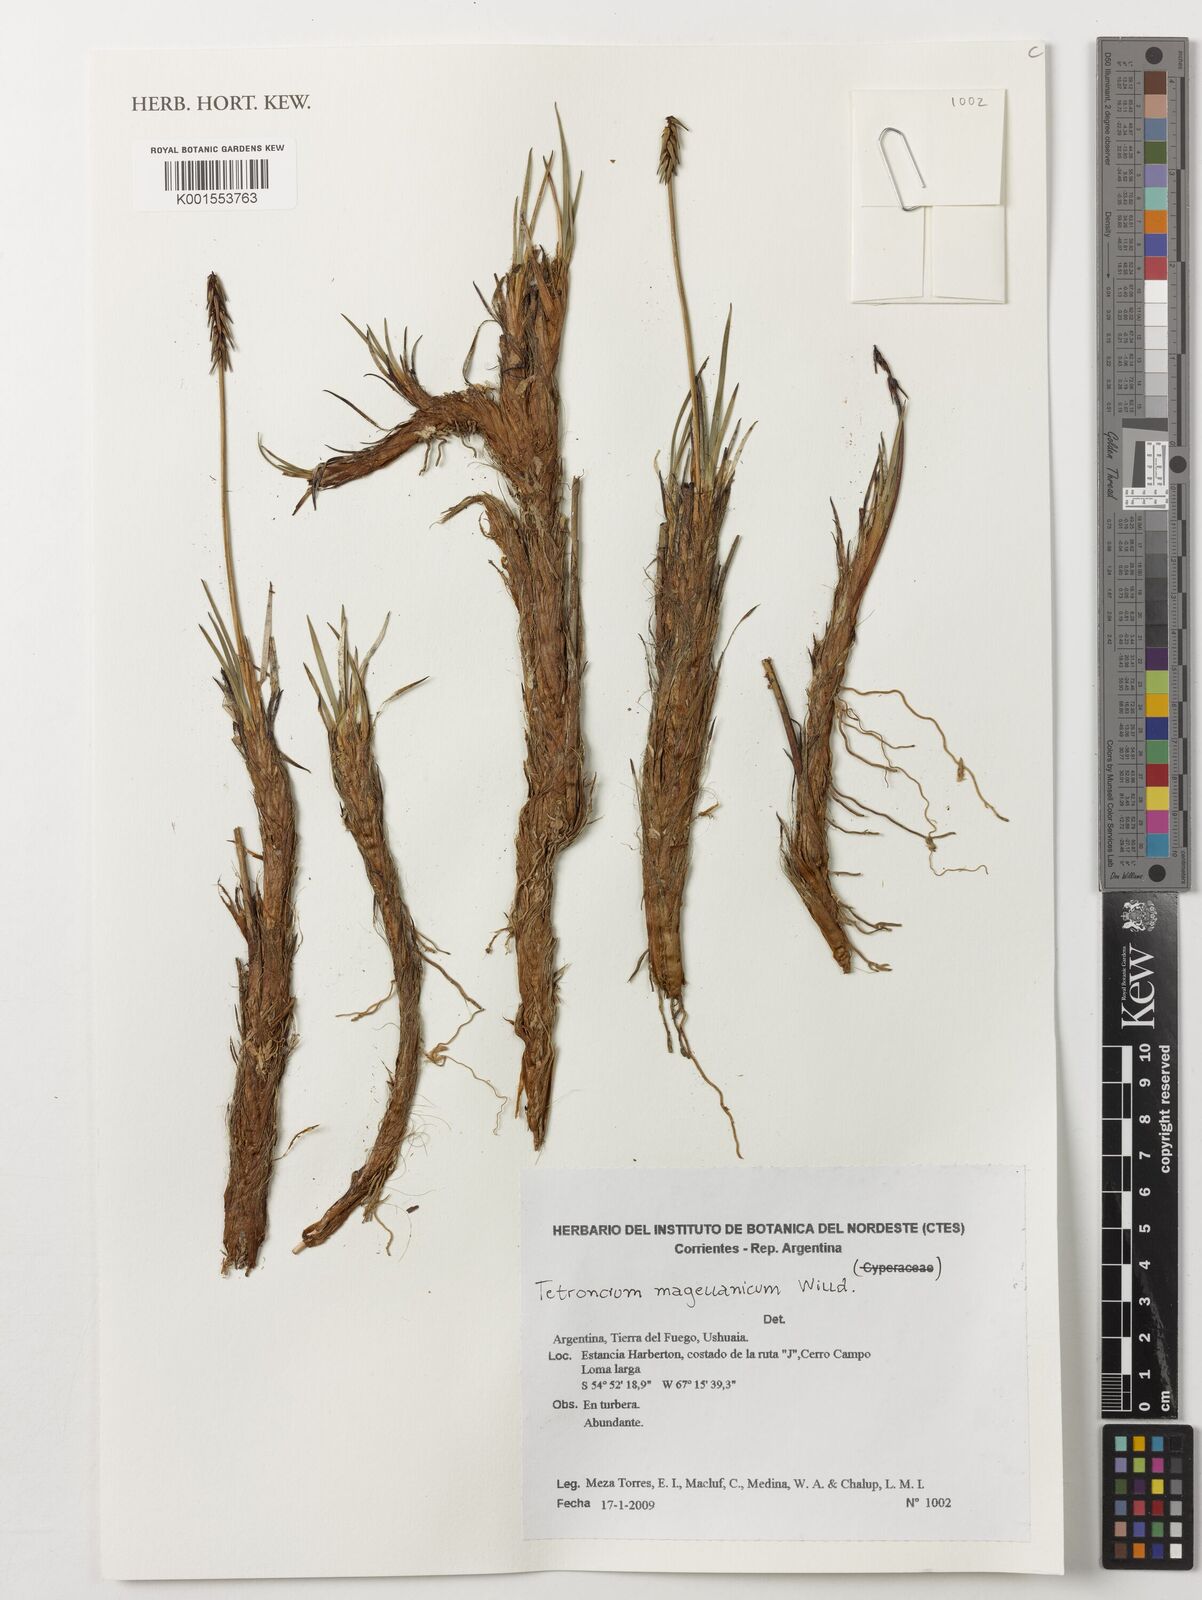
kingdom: Plantae
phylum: Tracheophyta
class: Liliopsida
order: Alismatales
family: Juncaginaceae
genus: Tetroncium
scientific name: Tetroncium magellanicum
